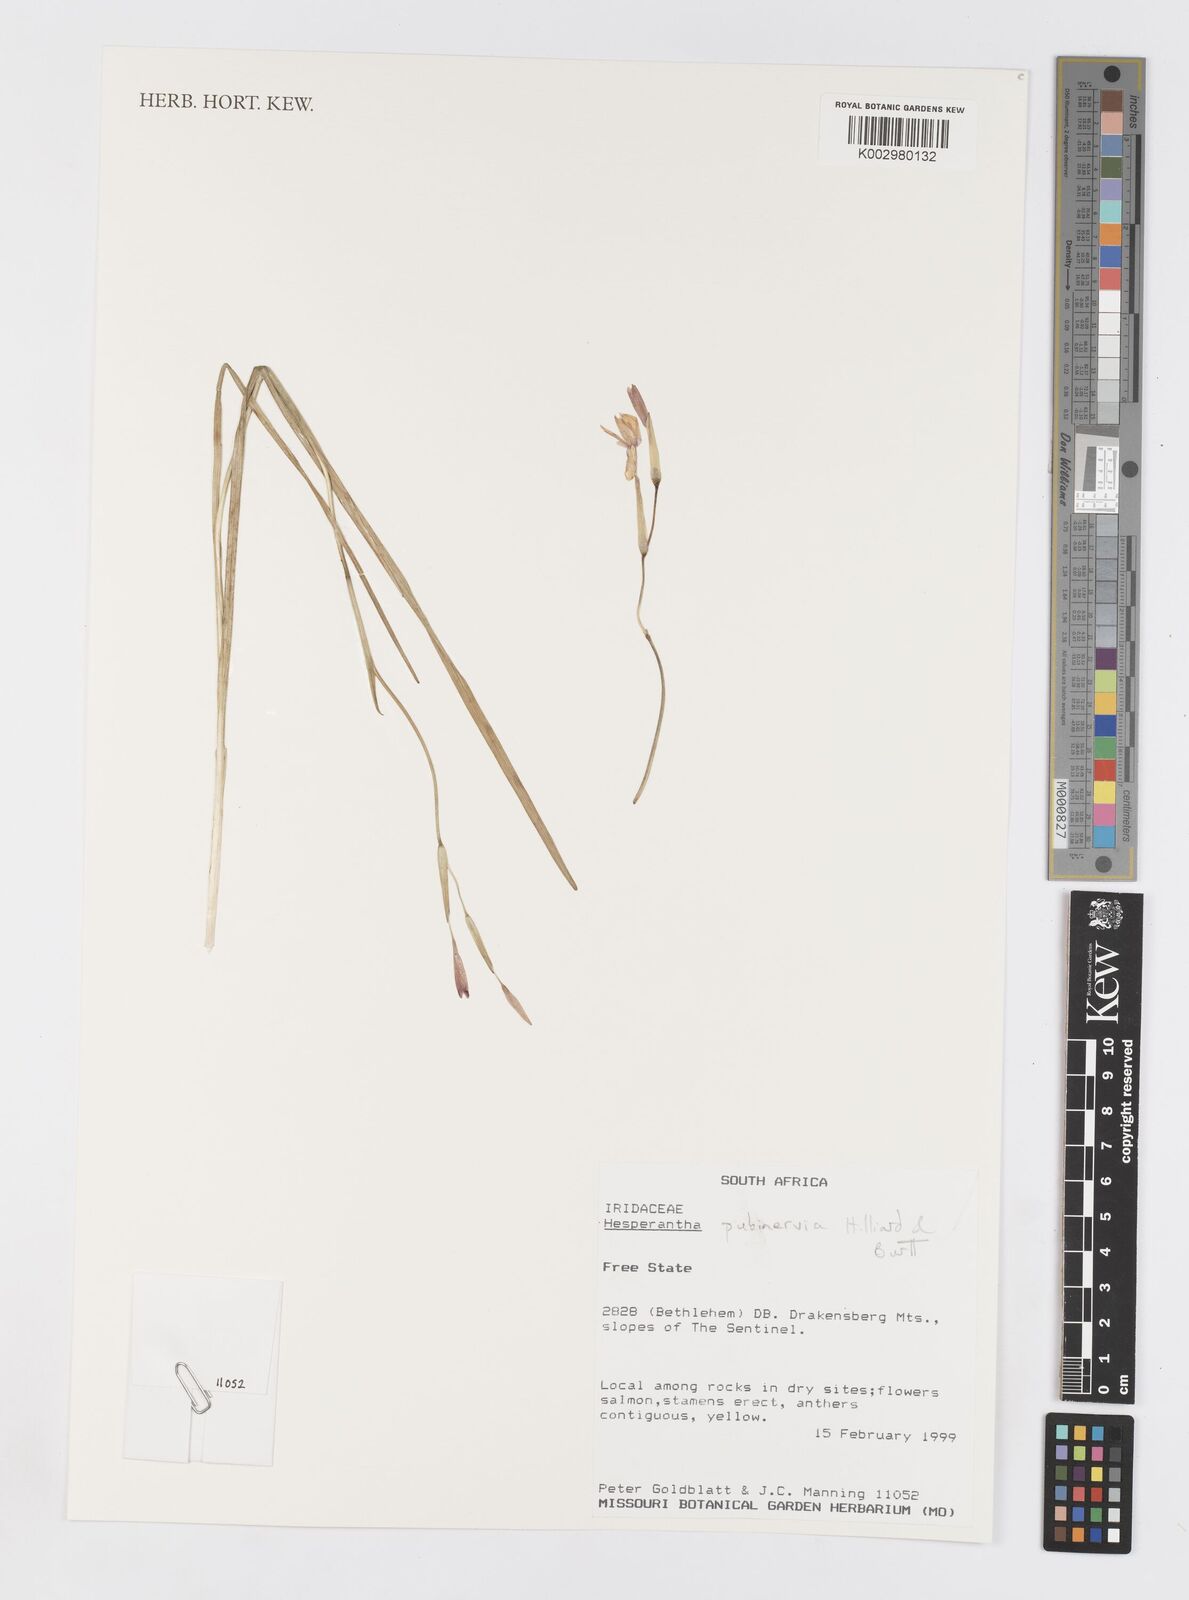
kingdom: Plantae
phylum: Tracheophyta
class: Liliopsida
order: Asparagales
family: Iridaceae
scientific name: Iridaceae
